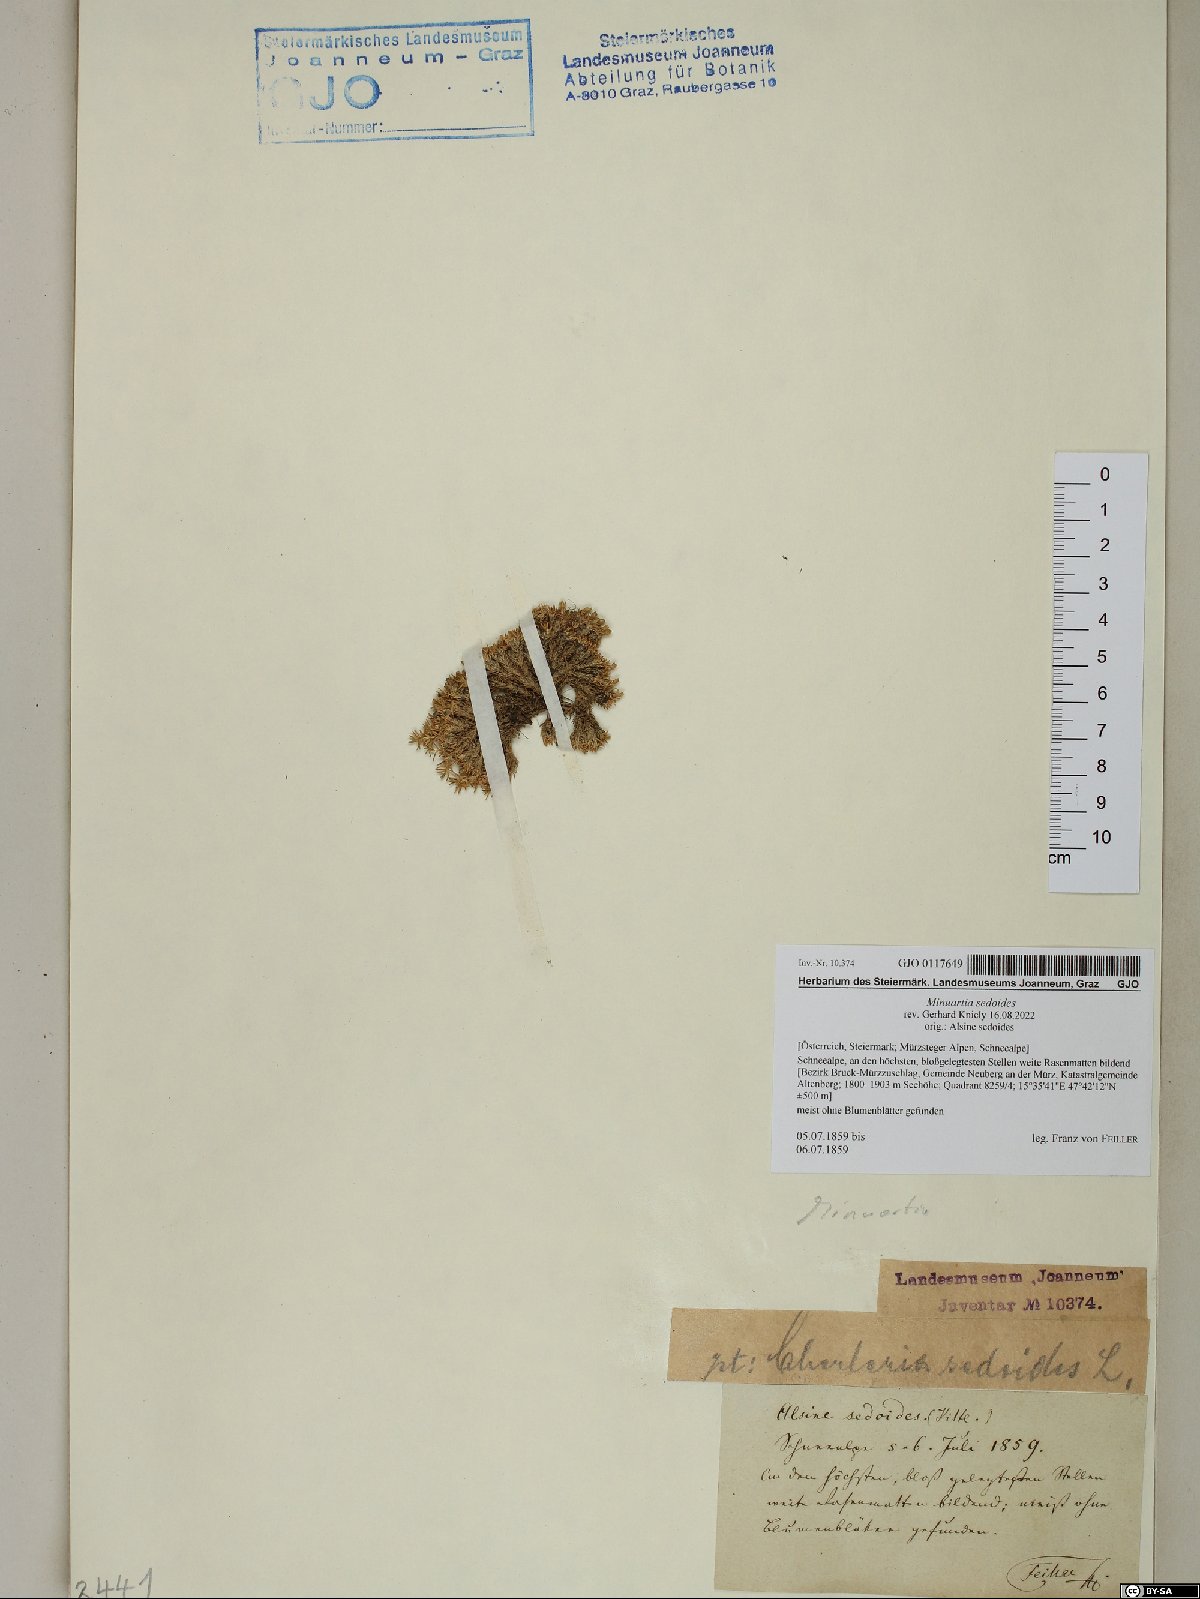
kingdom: Plantae
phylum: Tracheophyta
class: Magnoliopsida
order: Caryophyllales
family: Caryophyllaceae
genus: Cherleria
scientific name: Cherleria sedoides
